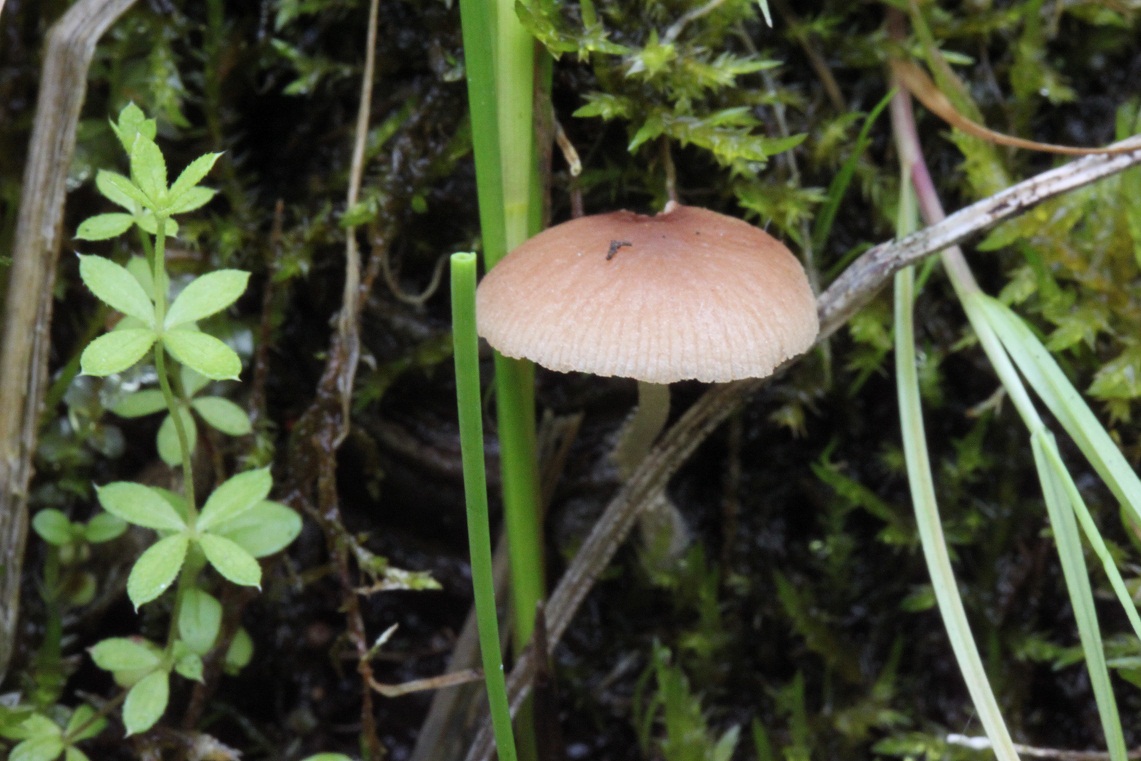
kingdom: Fungi
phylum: Basidiomycota
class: Agaricomycetes
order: Agaricales
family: Psathyrellaceae
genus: Candolleomyces
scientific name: Candolleomyces typhae
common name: dunhammer-mørkhat
